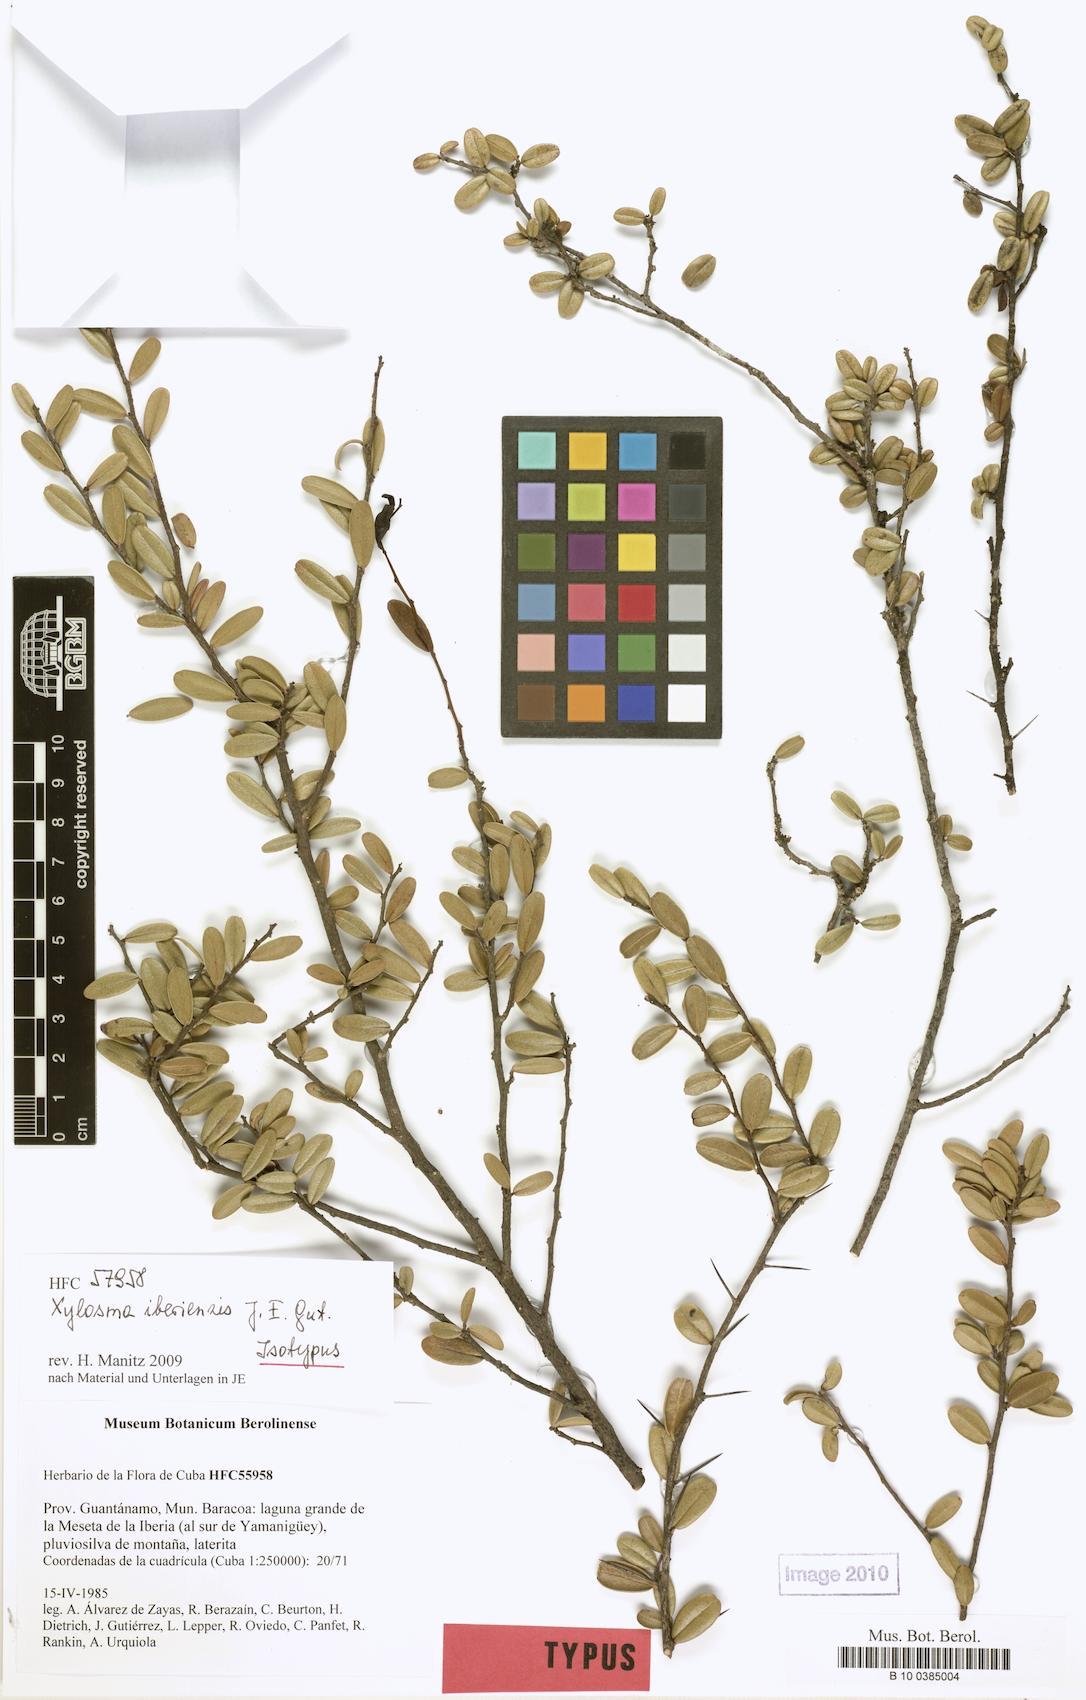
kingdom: Plantae
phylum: Tracheophyta
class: Magnoliopsida
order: Malpighiales
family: Salicaceae
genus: Xylosma
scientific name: Xylosma iberiensis
